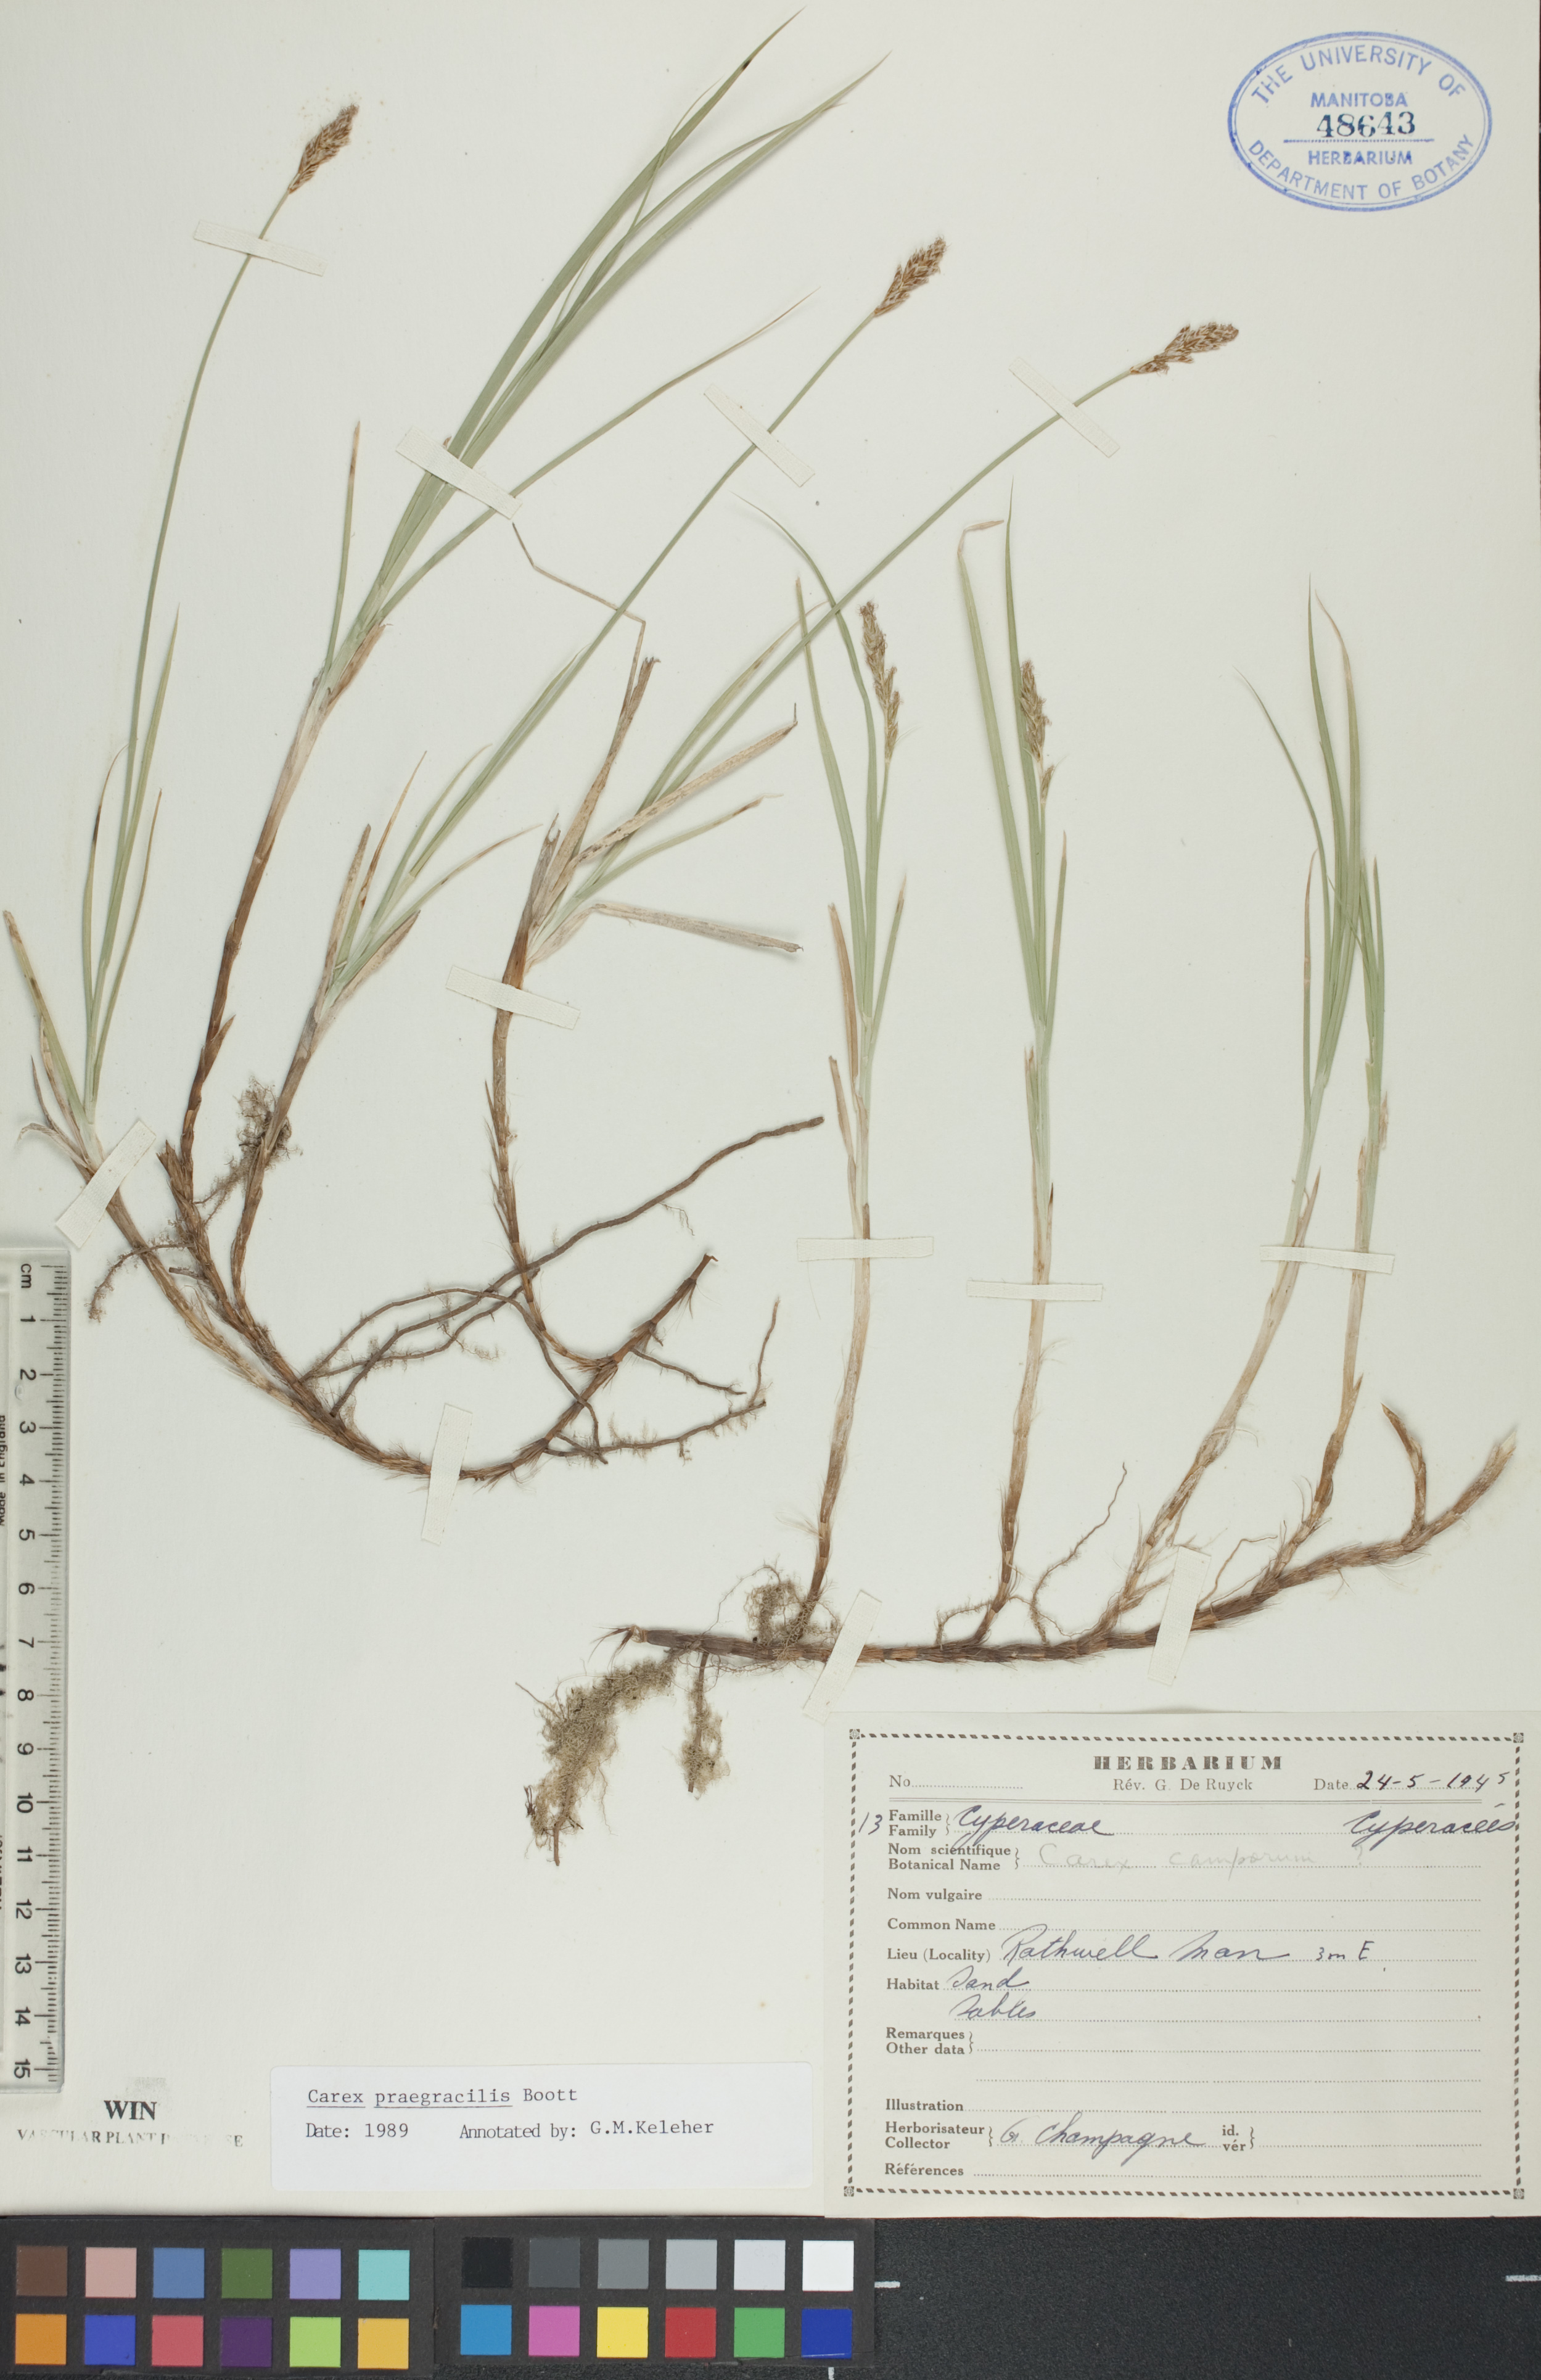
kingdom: Plantae
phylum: Tracheophyta
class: Liliopsida
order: Poales
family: Cyperaceae
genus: Carex
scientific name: Carex praegracilis
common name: Black creeper sedge
